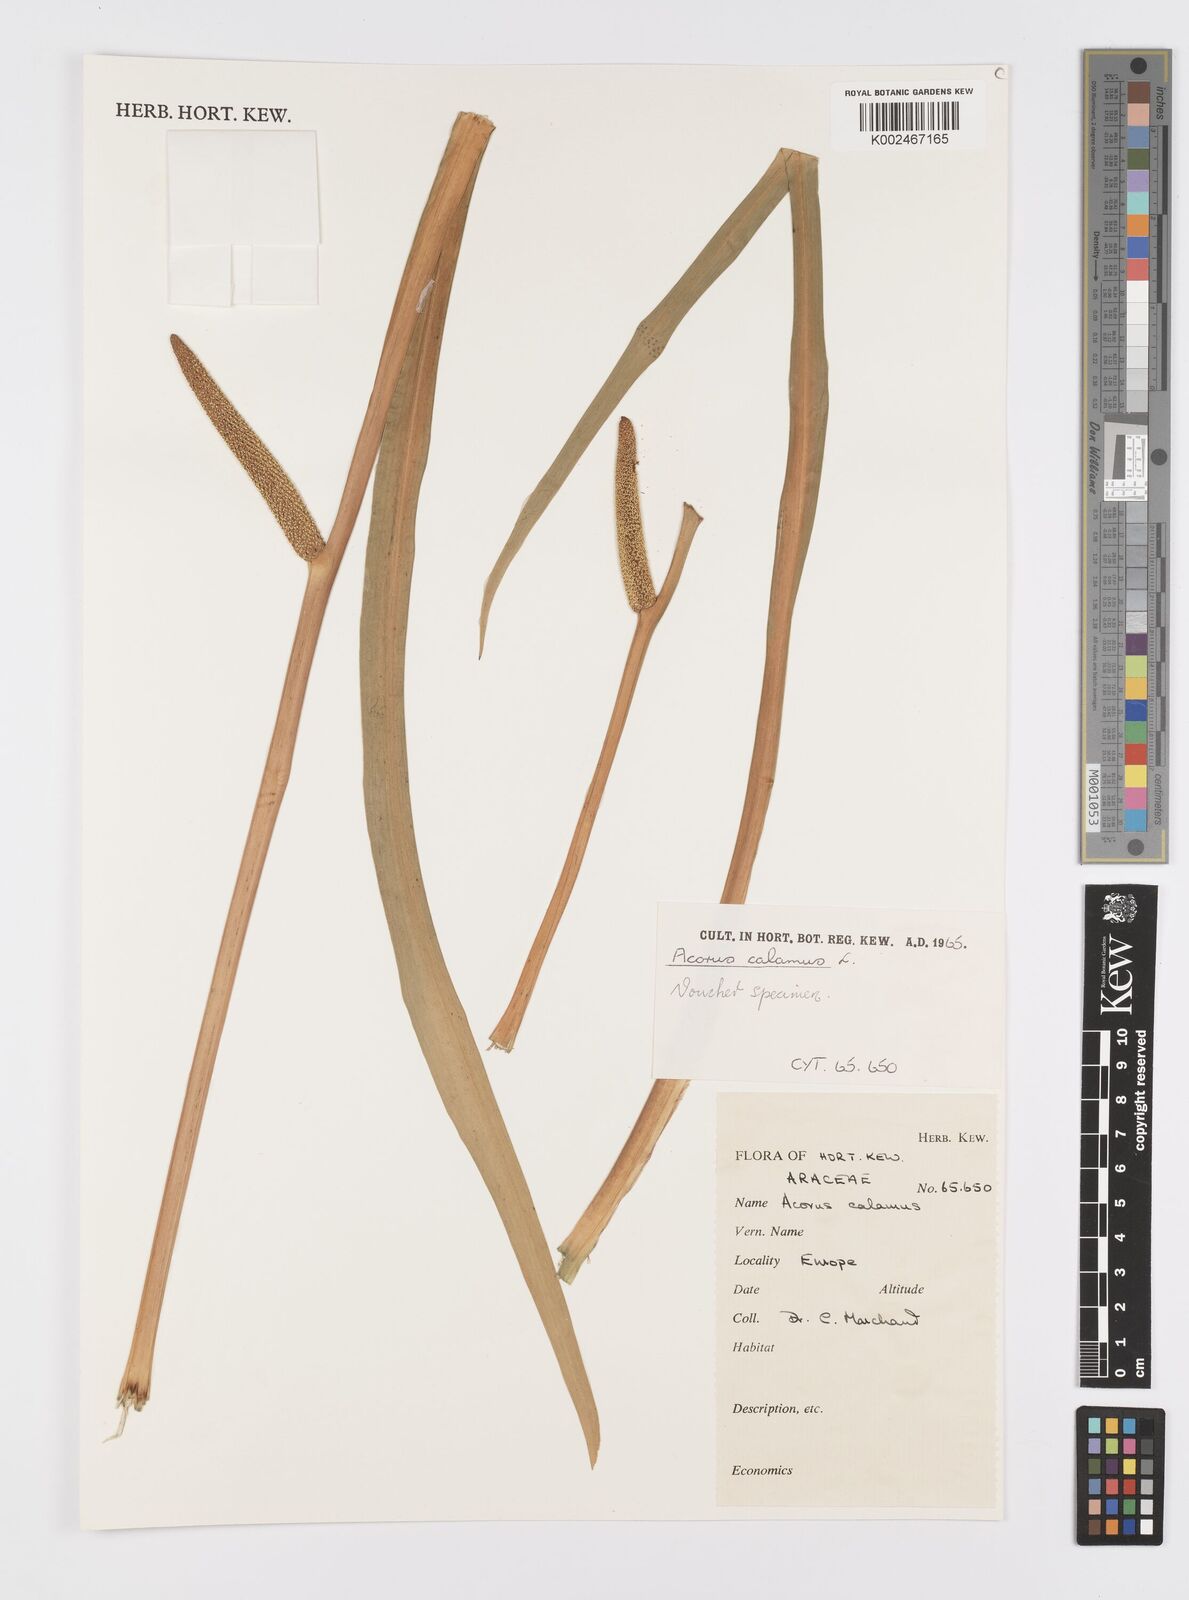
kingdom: Plantae
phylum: Tracheophyta
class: Liliopsida
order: Acorales
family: Acoraceae
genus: Acorus
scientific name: Acorus calamus
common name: Sweet-flag
